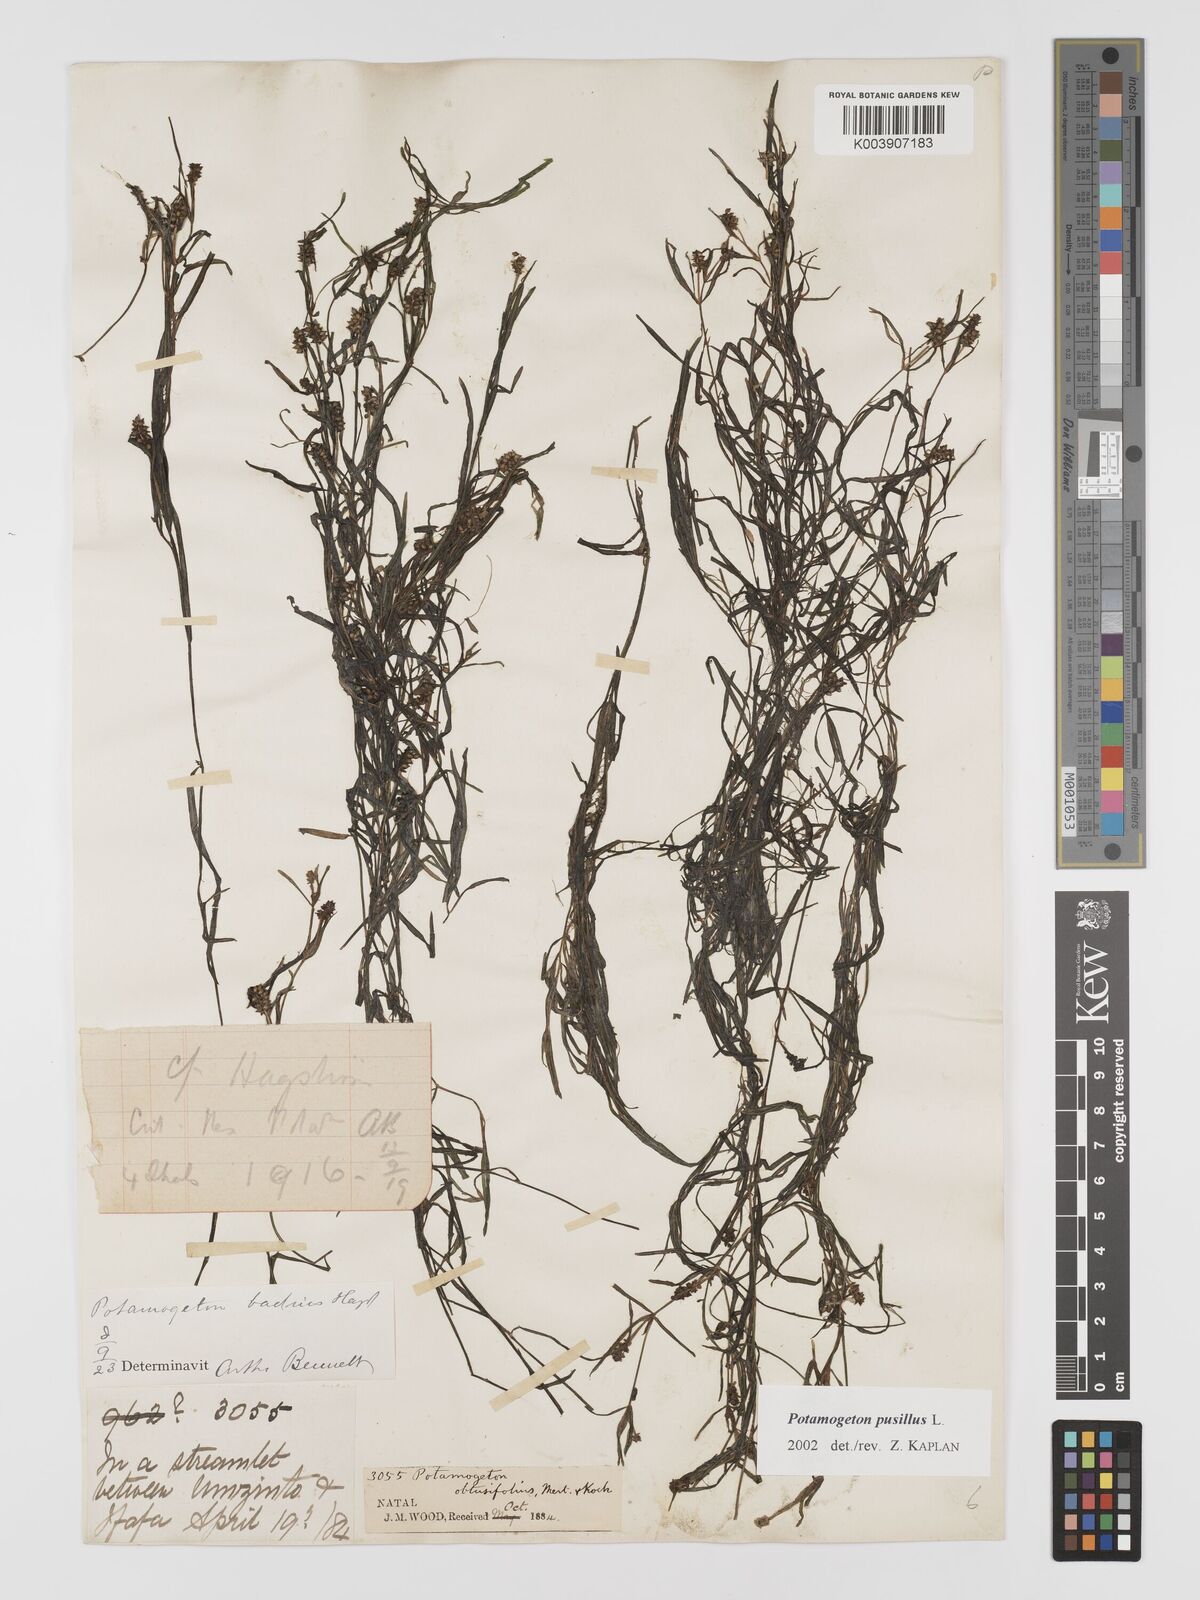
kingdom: Plantae
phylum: Tracheophyta
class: Liliopsida
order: Alismatales
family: Potamogetonaceae
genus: Potamogeton
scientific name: Potamogeton pusillus
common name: Lesser pondweed
